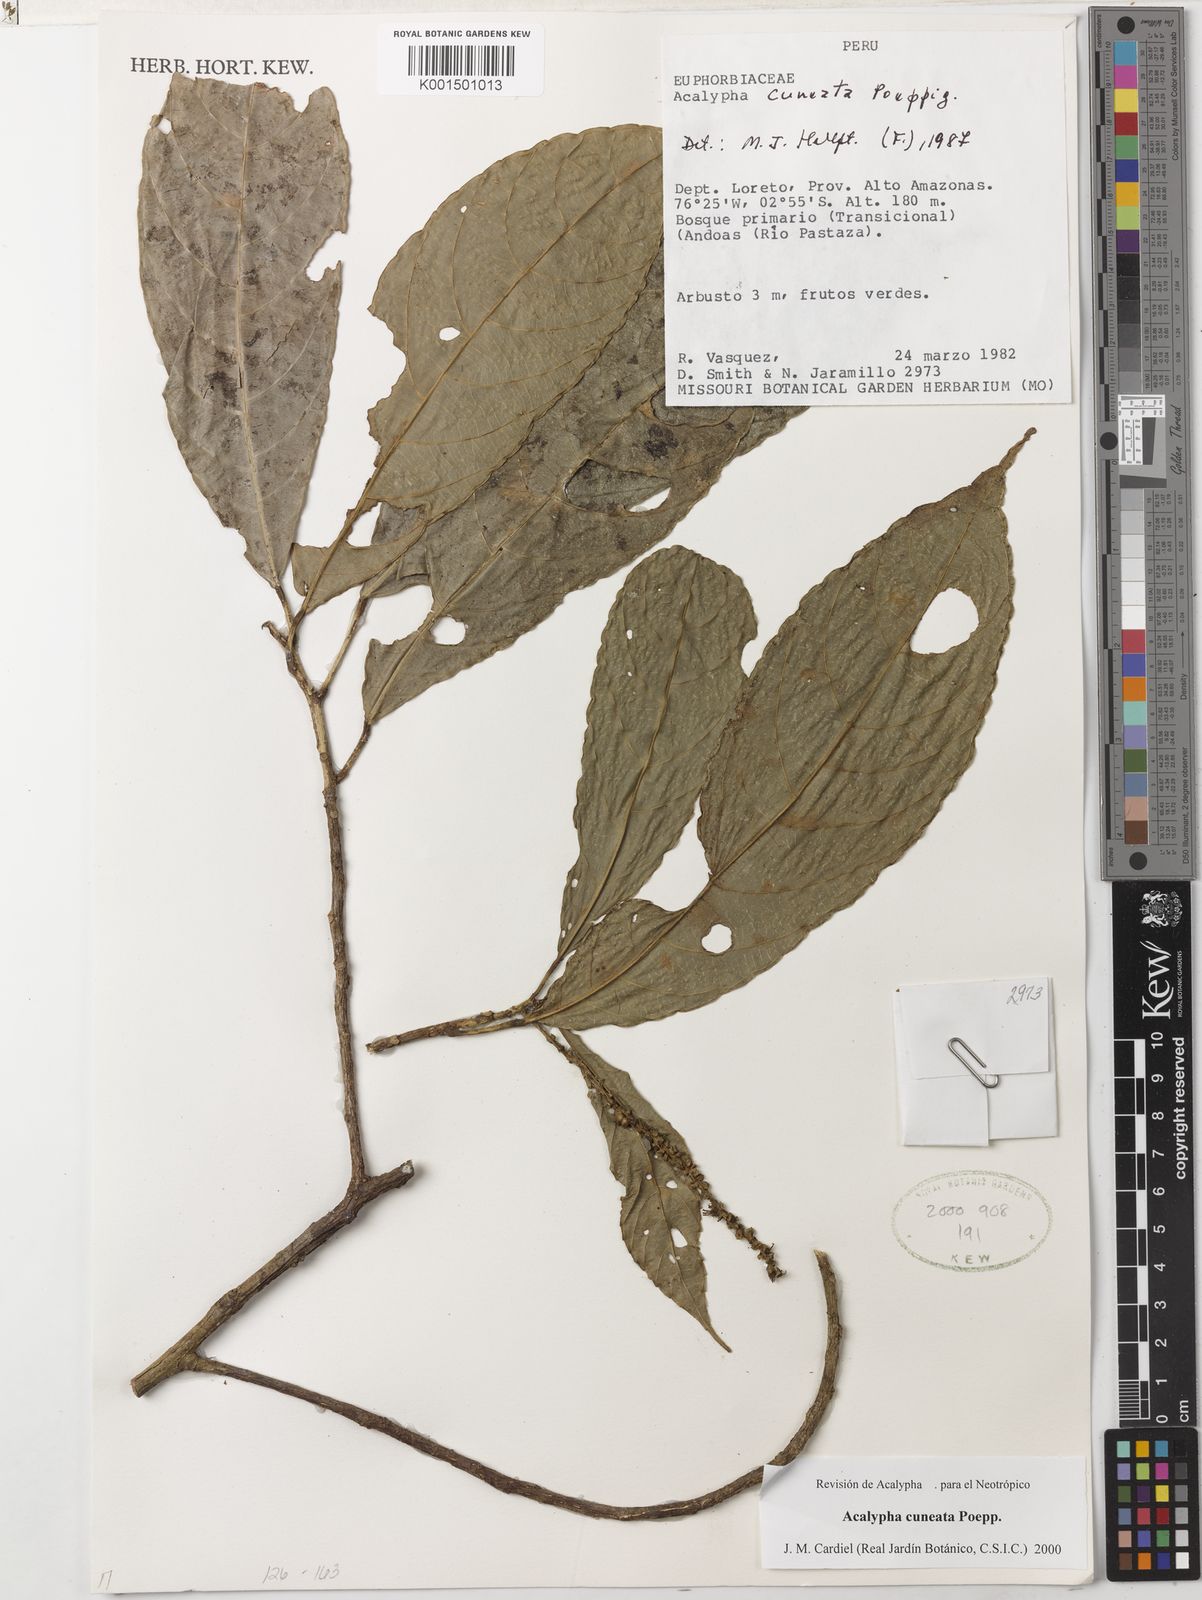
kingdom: Plantae
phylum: Tracheophyta
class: Magnoliopsida
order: Malpighiales
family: Euphorbiaceae
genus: Acalypha
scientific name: Acalypha cuneata
